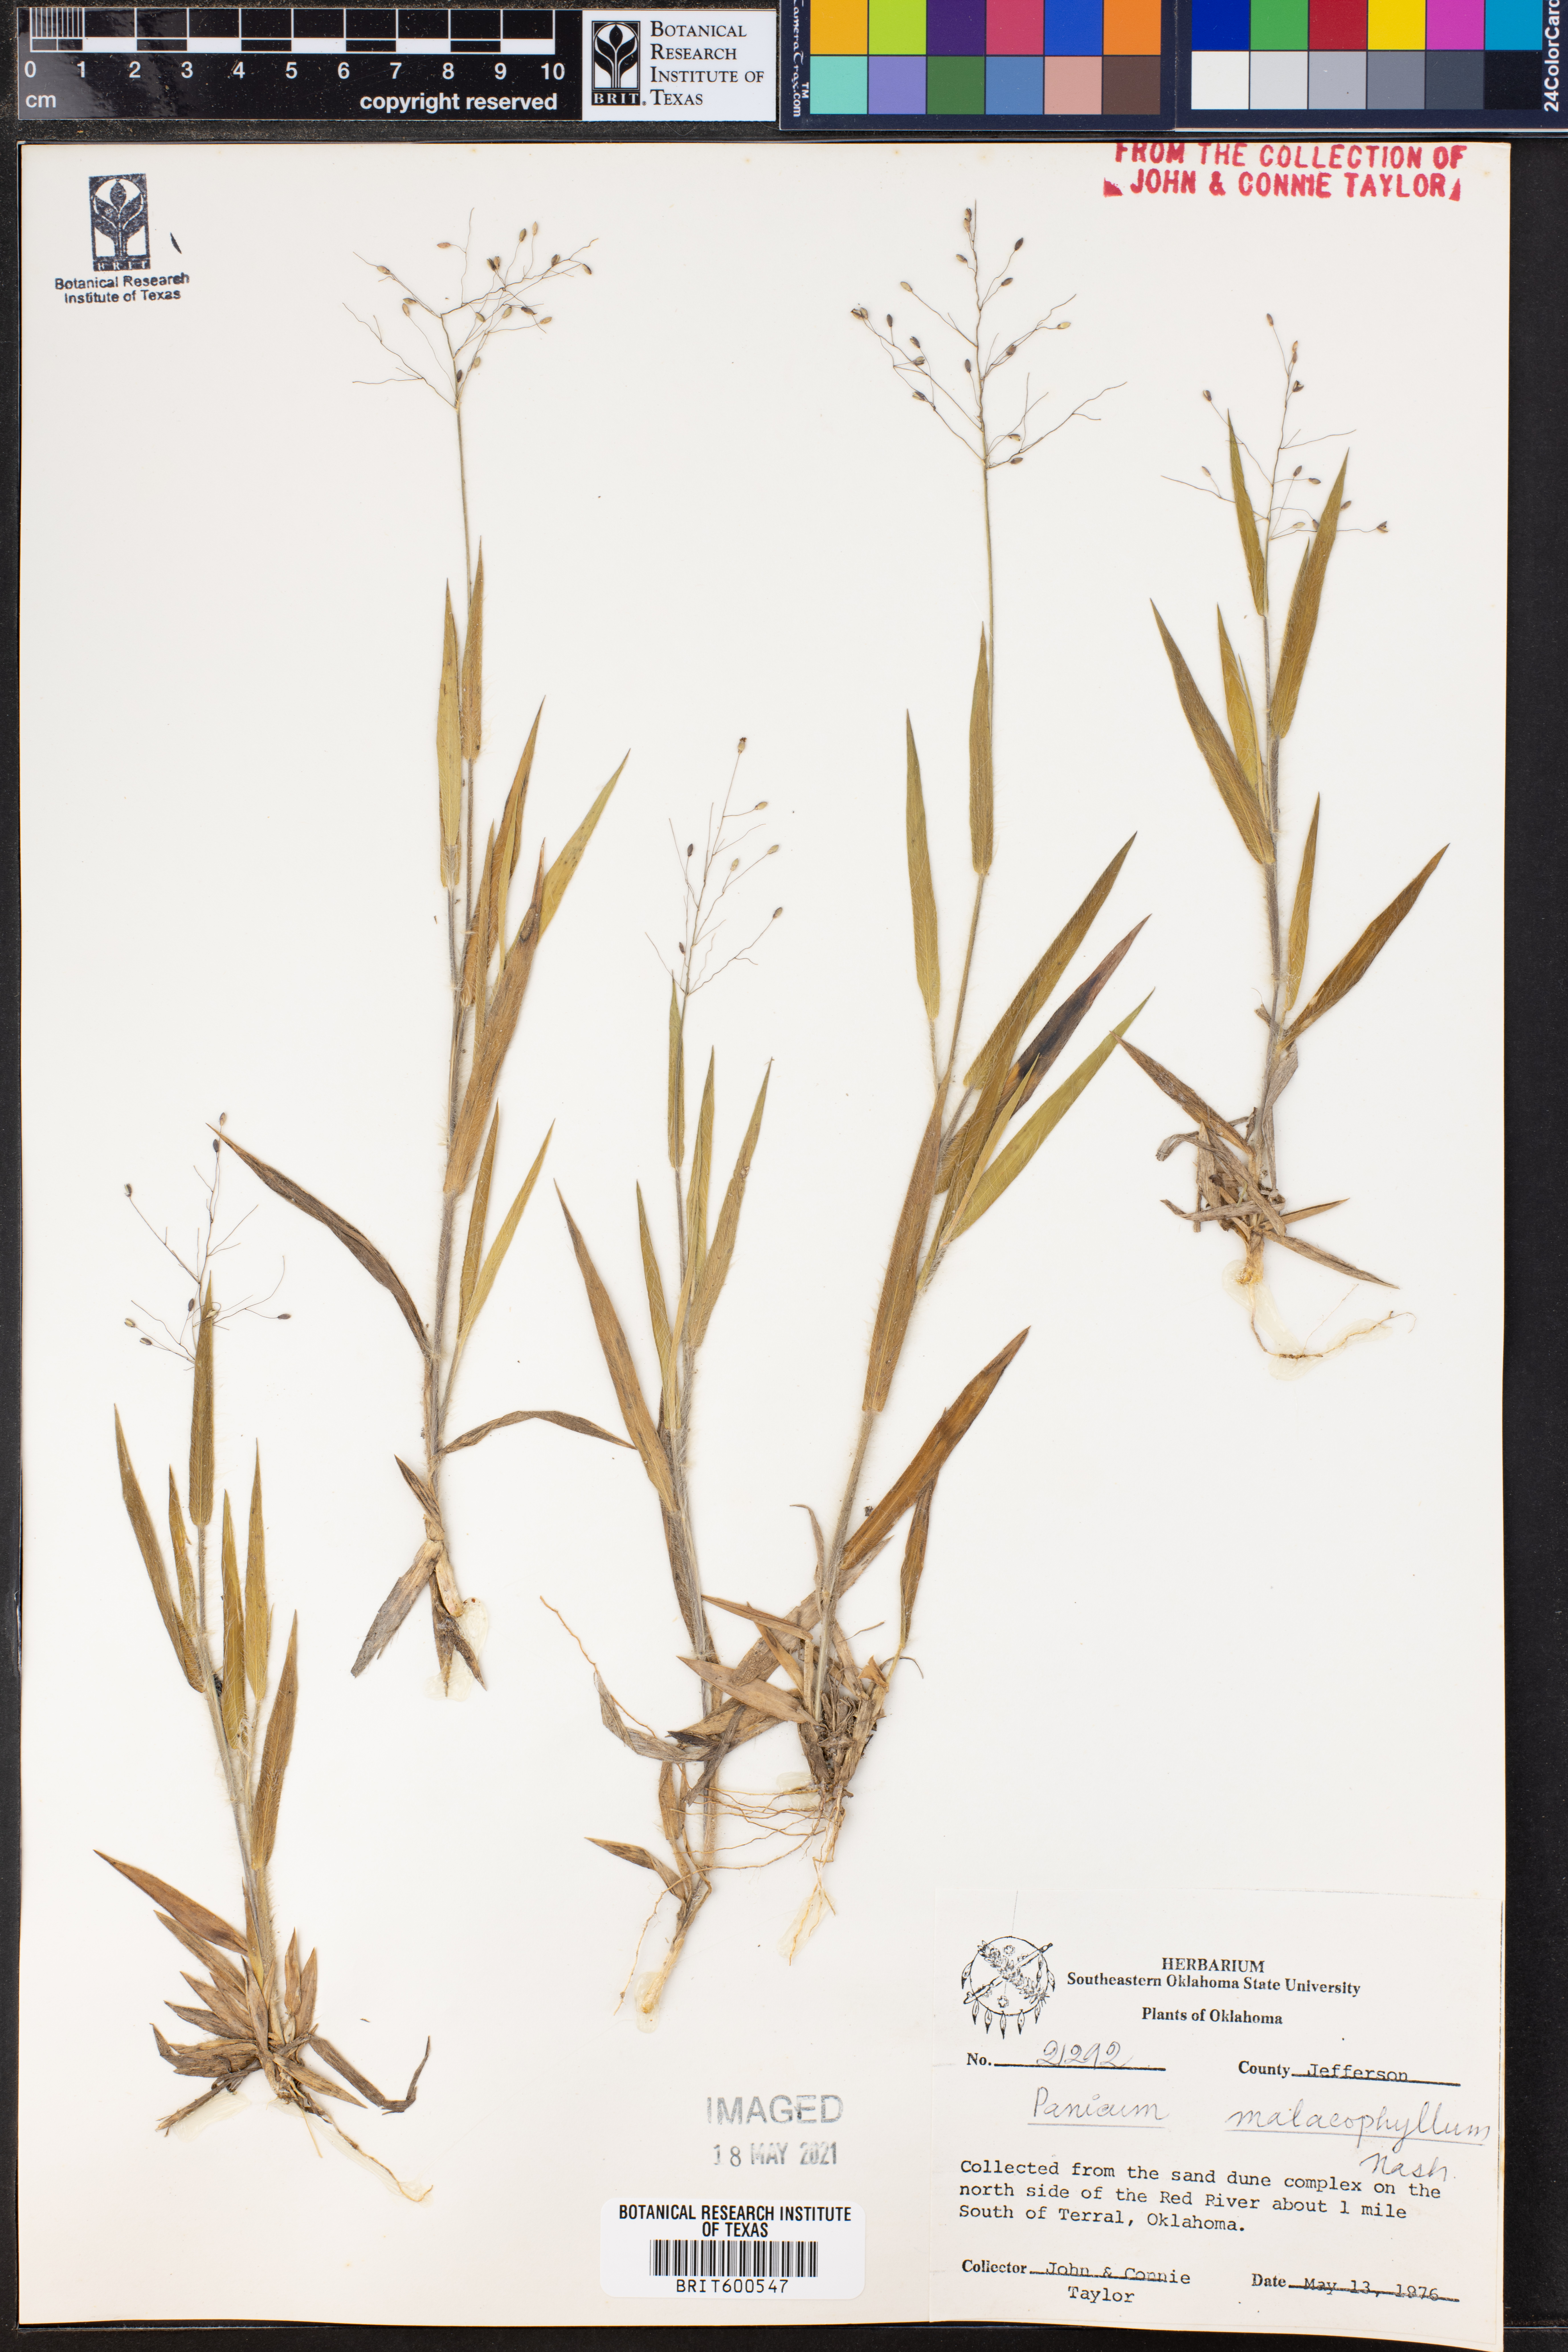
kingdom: Plantae
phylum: Tracheophyta
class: Liliopsida
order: Poales
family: Poaceae
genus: Dichanthelium
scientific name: Dichanthelium malacophyllum
